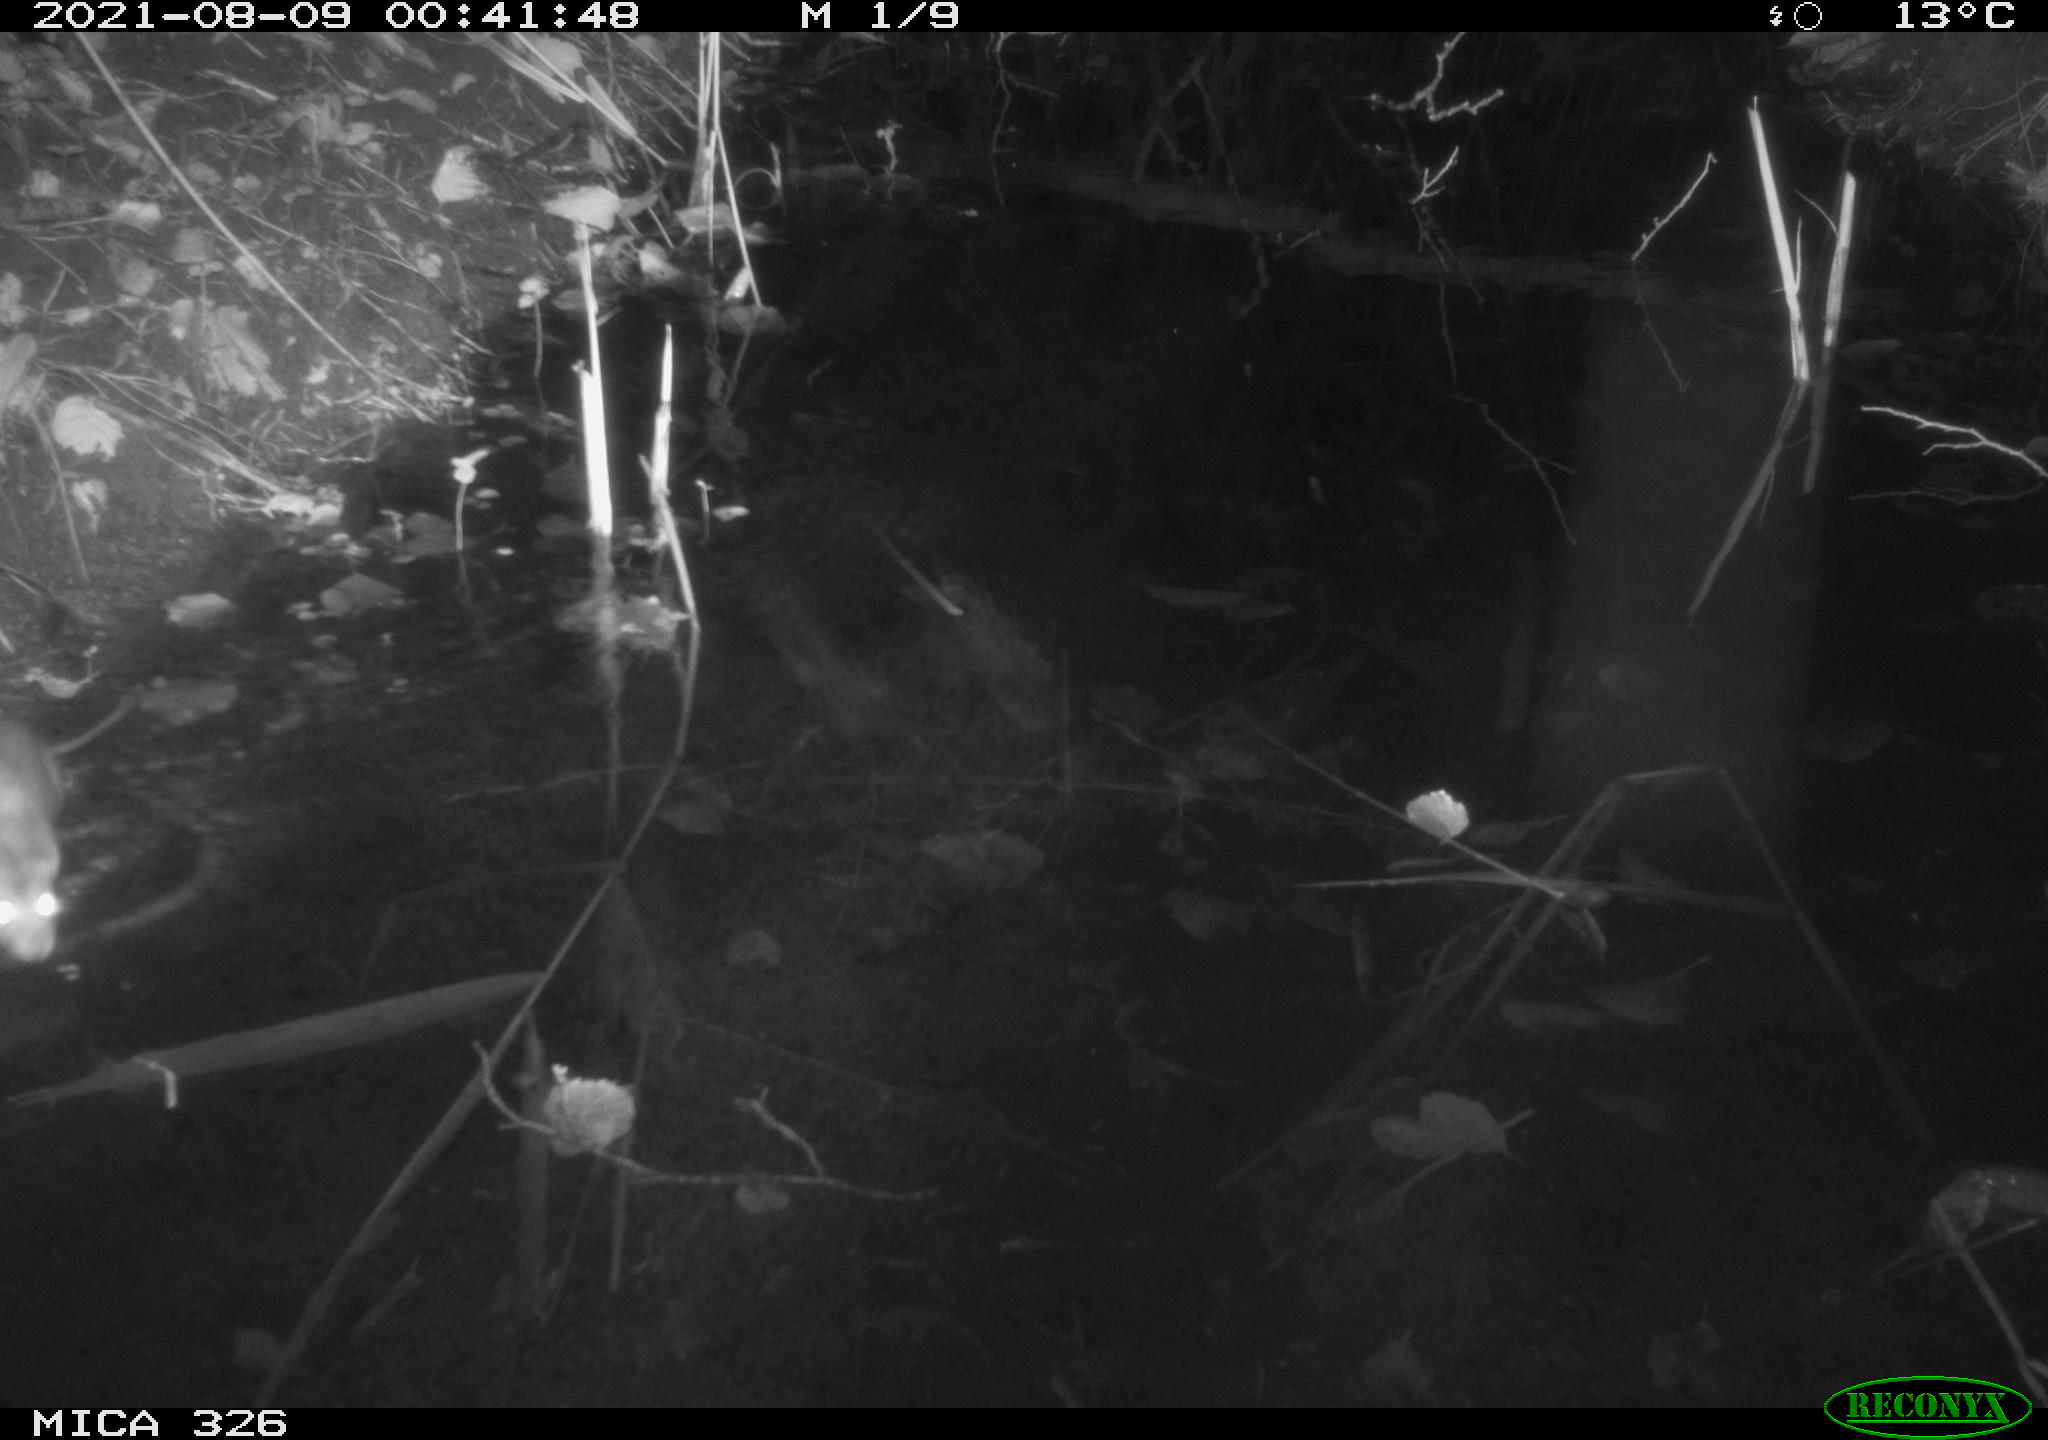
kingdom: Animalia
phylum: Chordata
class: Mammalia
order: Rodentia
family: Muridae
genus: Rattus
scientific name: Rattus norvegicus
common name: Brown rat
